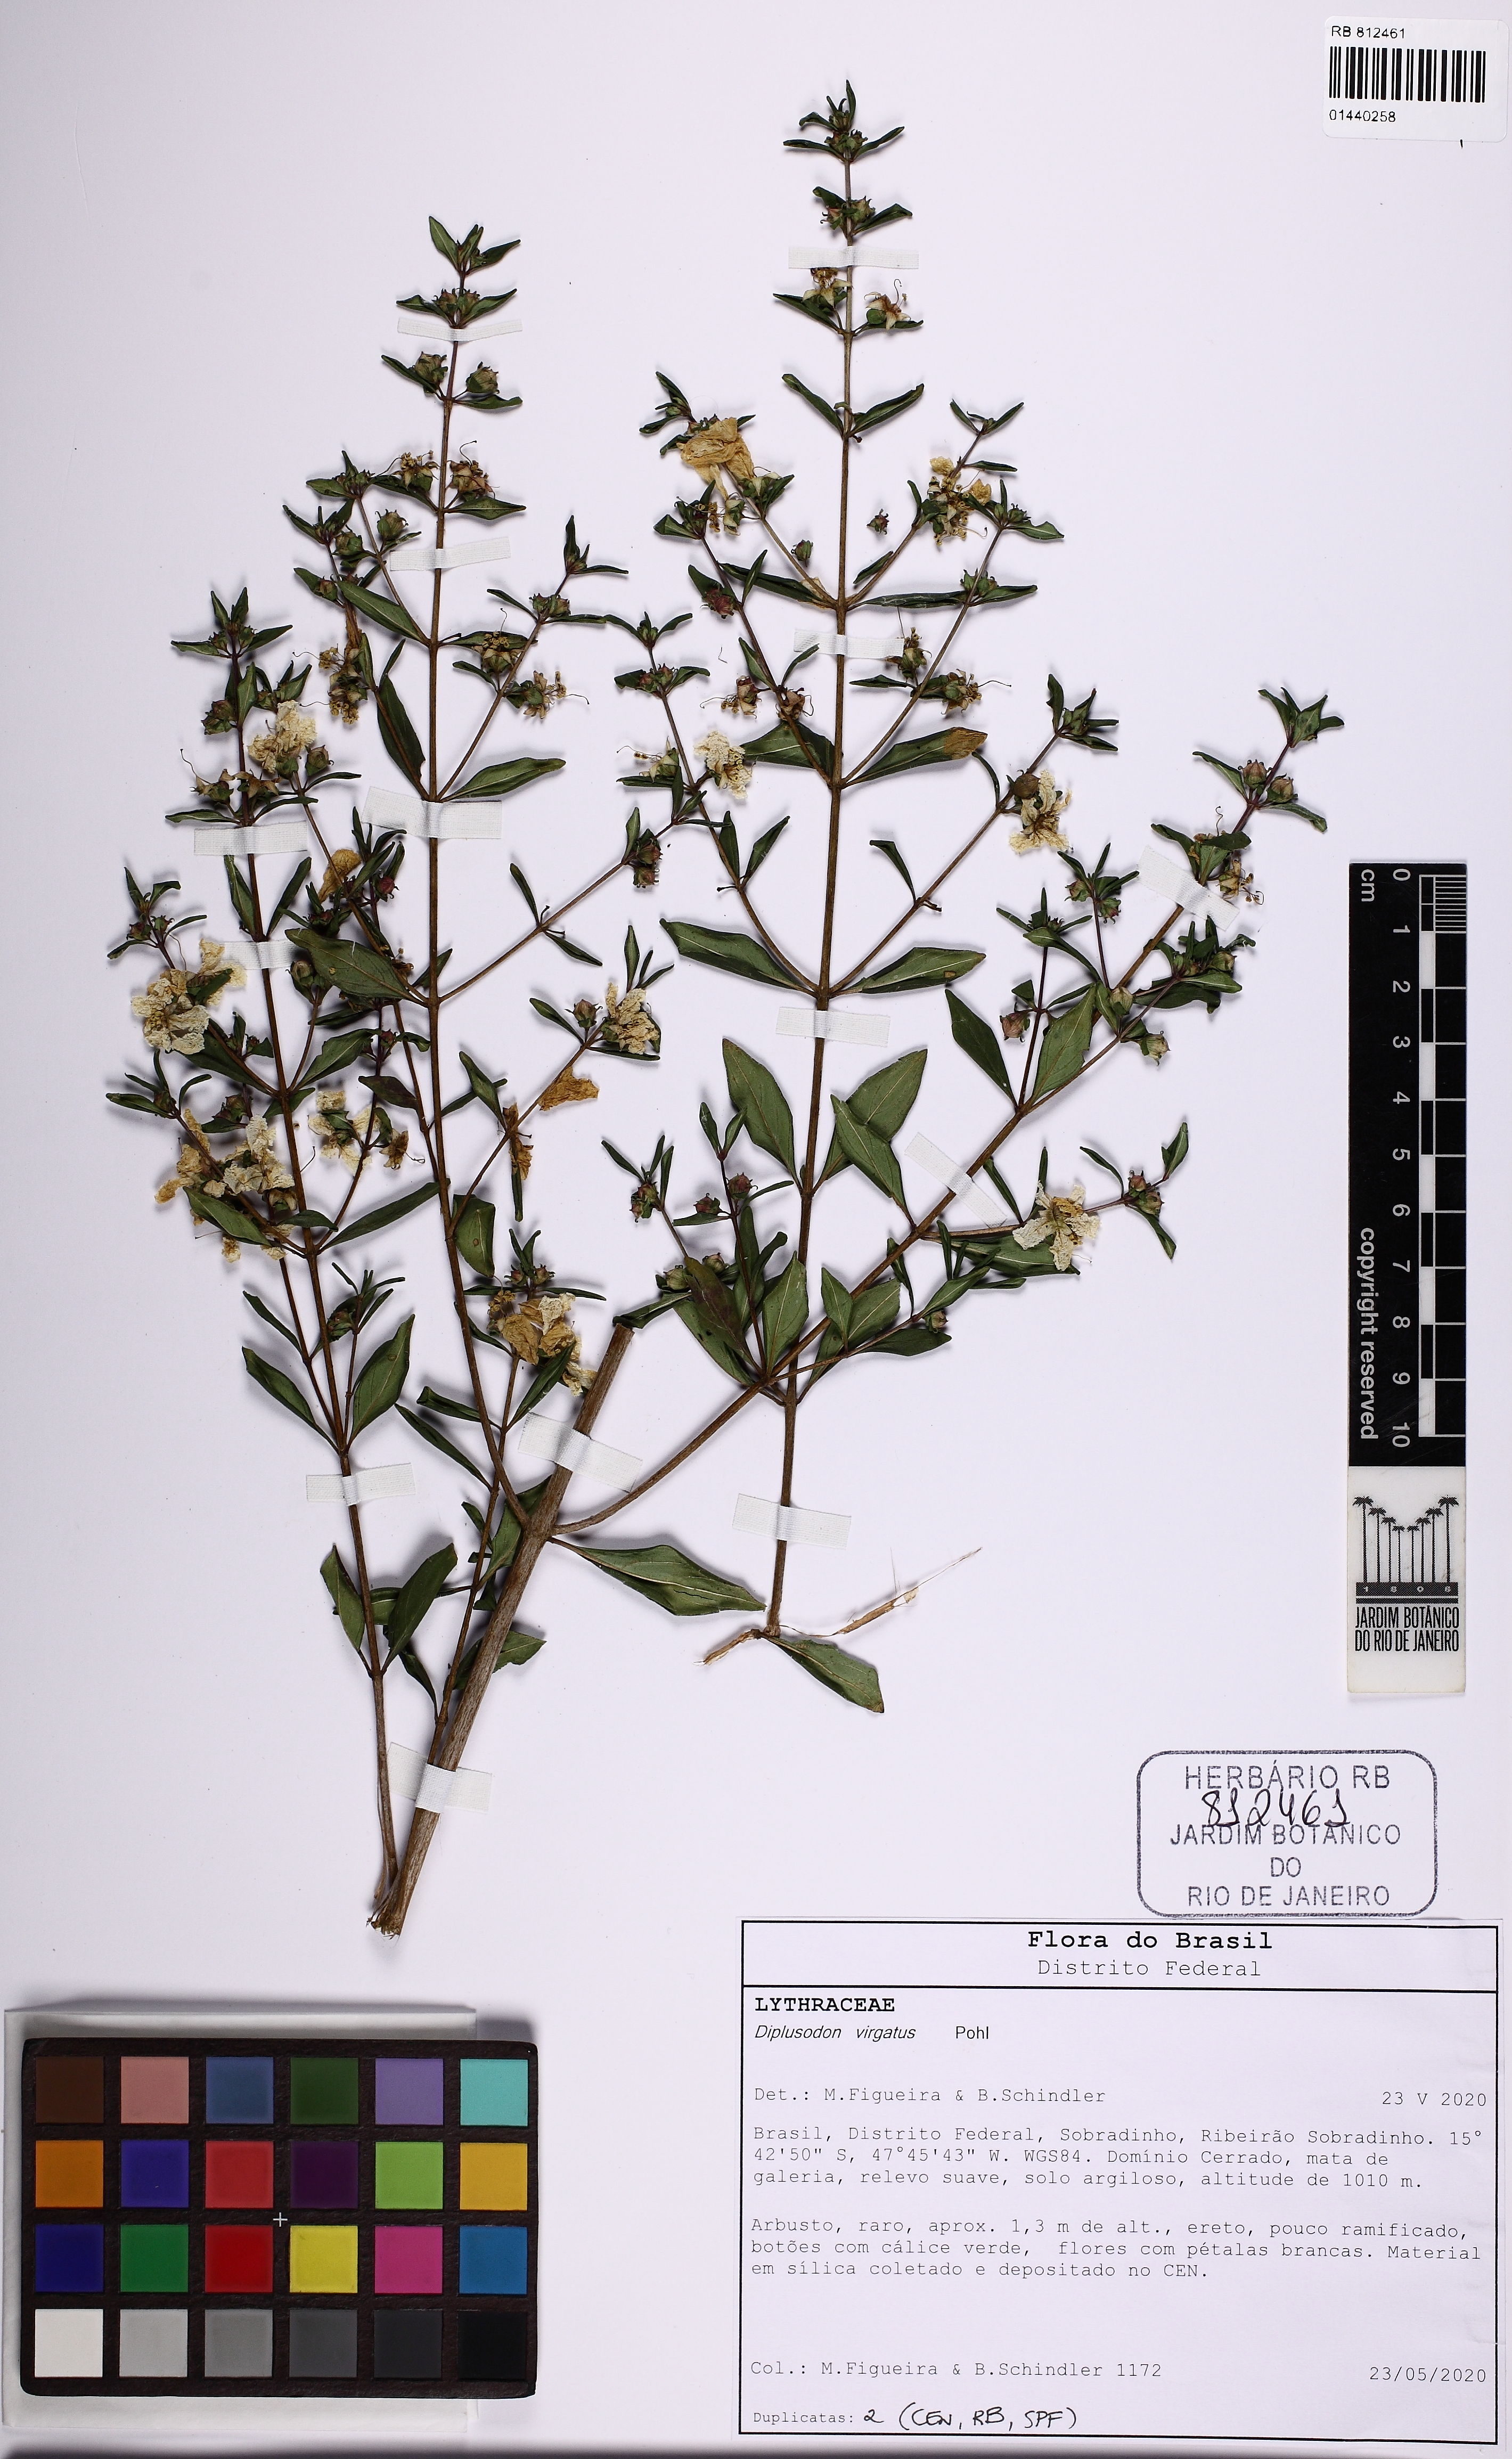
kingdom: Plantae
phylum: Tracheophyta
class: Magnoliopsida
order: Myrtales
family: Lythraceae
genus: Diplusodon
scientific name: Diplusodon virgatus
